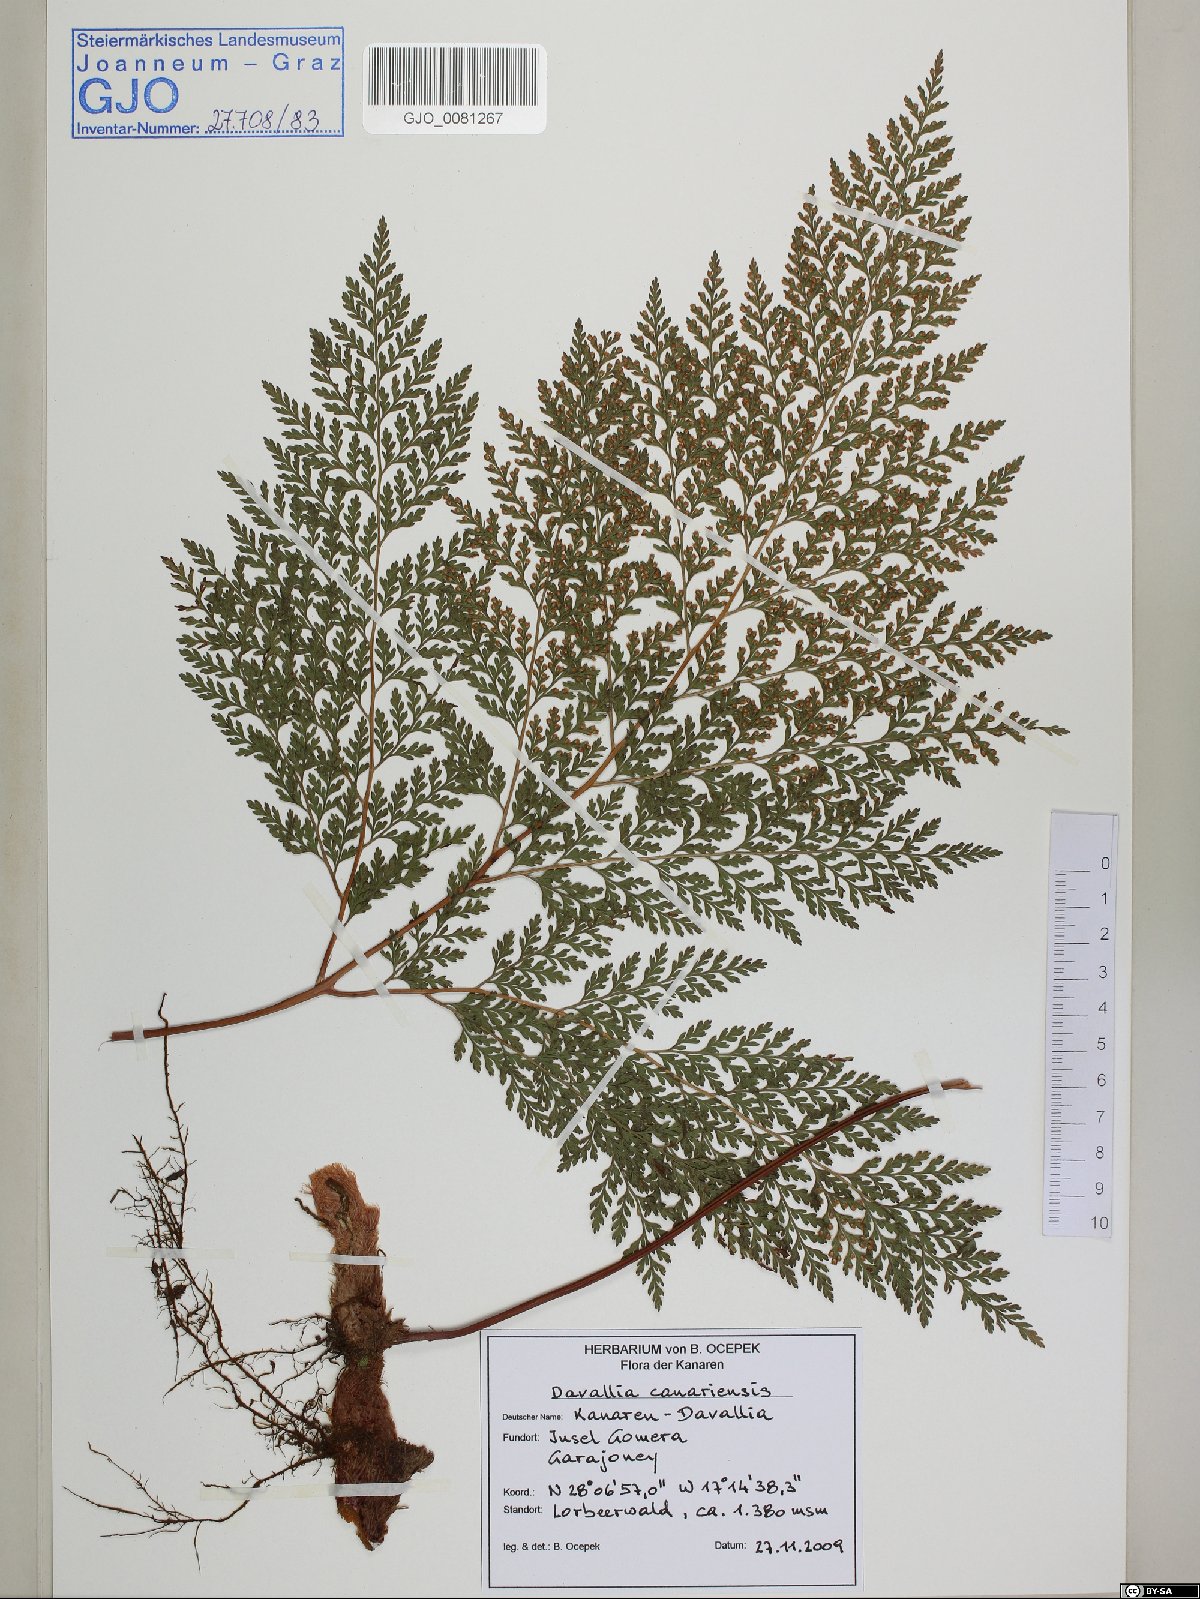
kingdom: Plantae
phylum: Tracheophyta
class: Polypodiopsida
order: Polypodiales
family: Davalliaceae
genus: Davallia
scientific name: Davallia canariensis
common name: Hare's-foot fern
